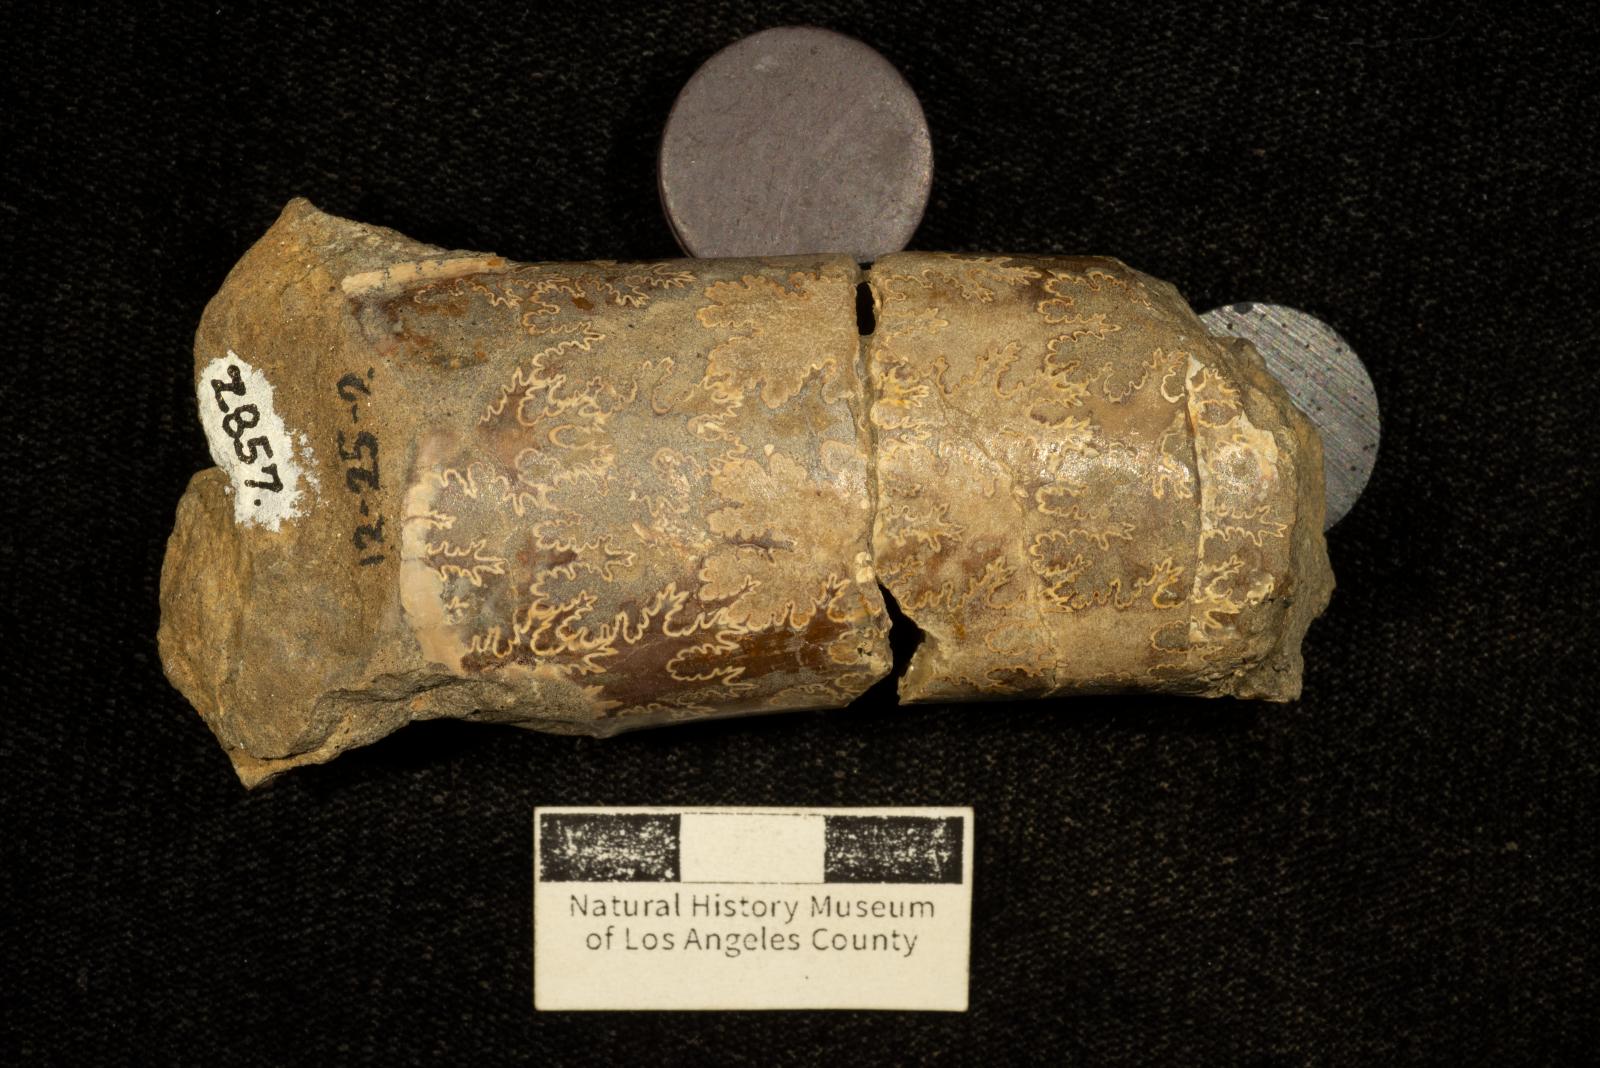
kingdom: Animalia
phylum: Mollusca
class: Cephalopoda
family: Baculitidae
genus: Baculites
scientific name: Baculites
